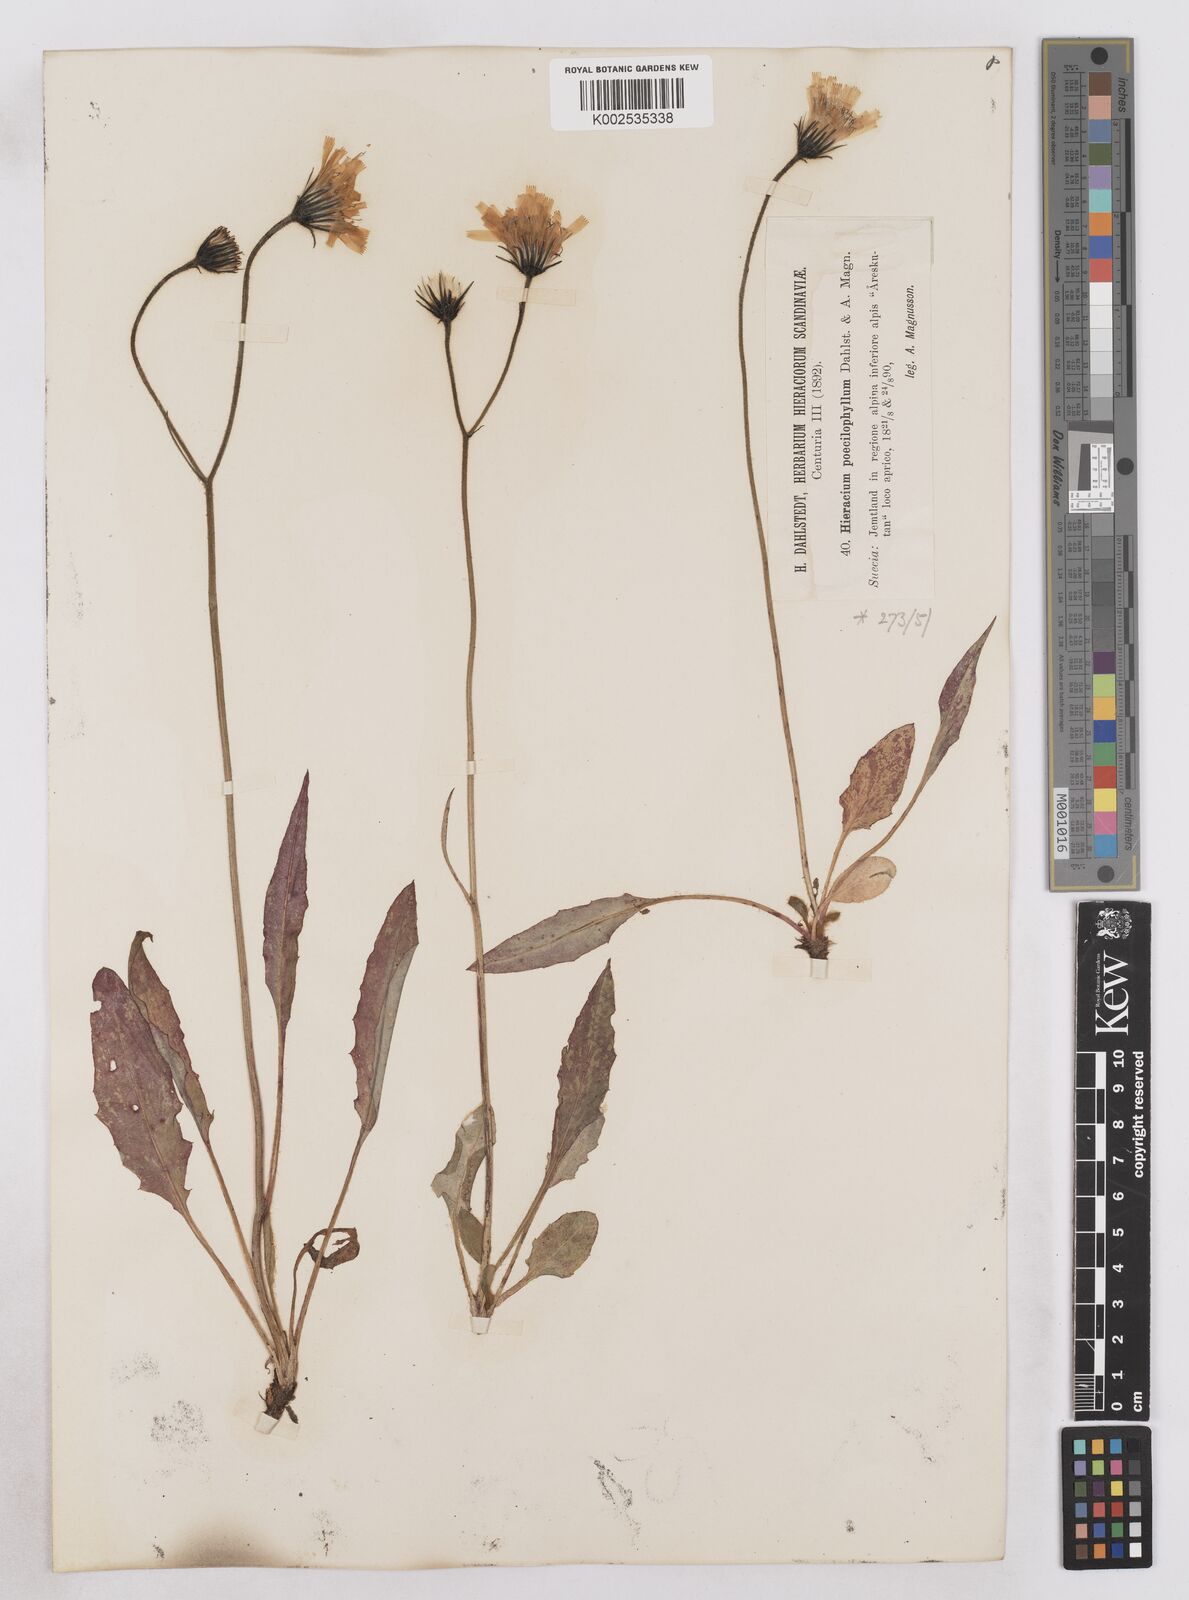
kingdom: Plantae
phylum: Tracheophyta
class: Magnoliopsida
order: Asterales
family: Asteraceae
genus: Hieracium
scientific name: Hieracium conspurcans
